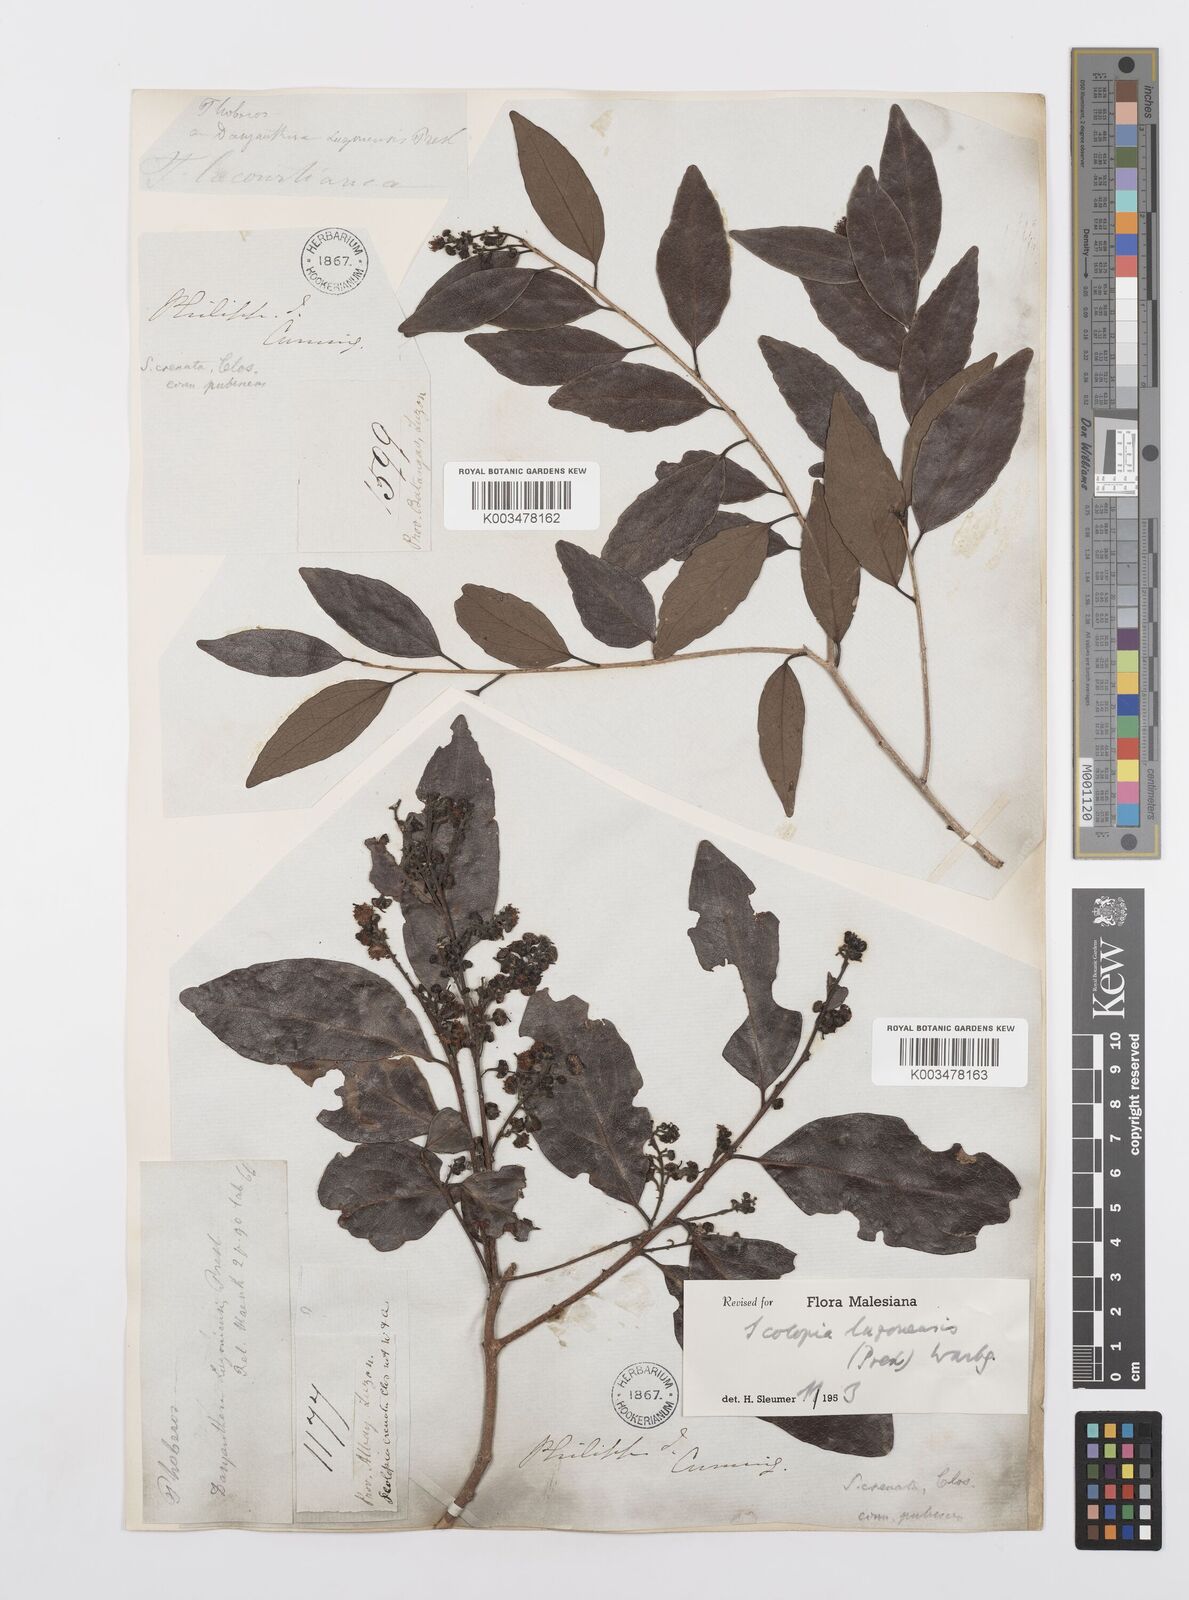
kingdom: Plantae
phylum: Tracheophyta
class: Magnoliopsida
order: Malpighiales
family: Salicaceae
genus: Scolopia
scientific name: Scolopia luzonensis
